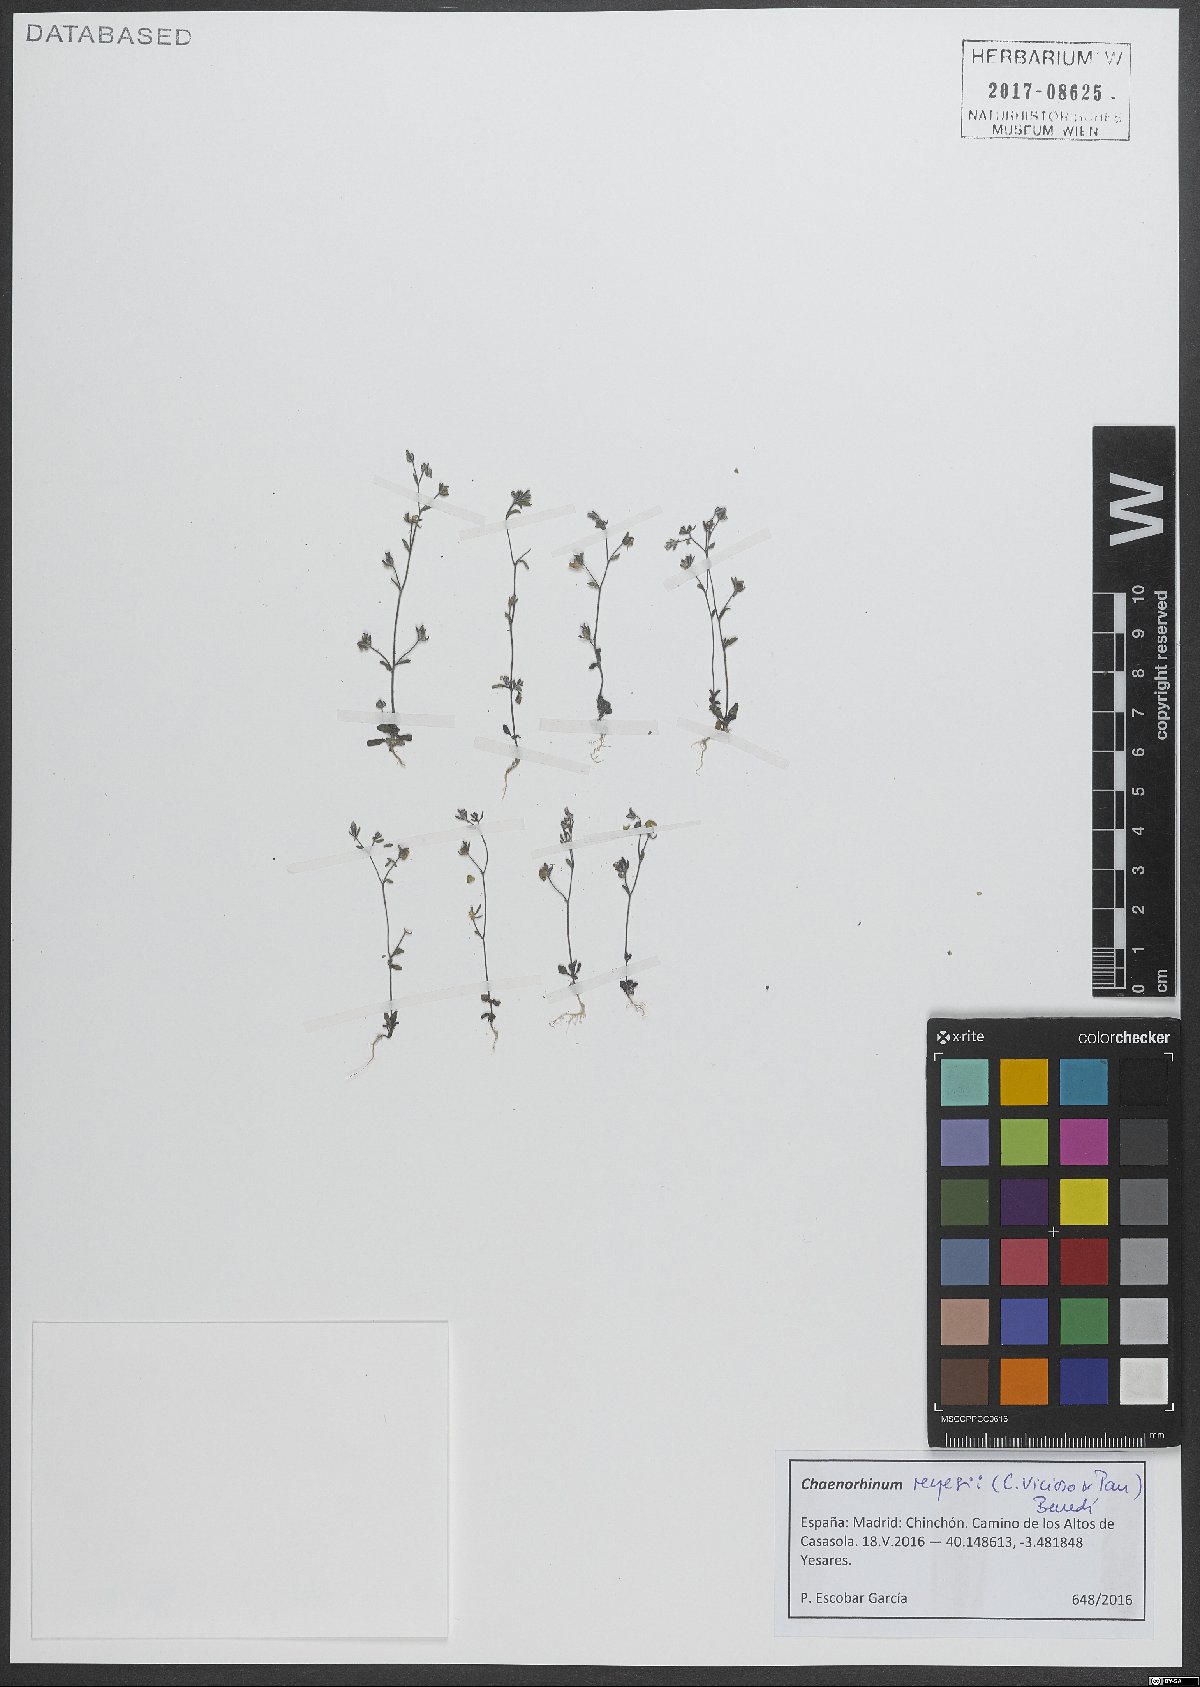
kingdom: Plantae
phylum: Tracheophyta
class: Magnoliopsida
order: Lamiales
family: Plantaginaceae
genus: Chaenorhinum
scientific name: Chaenorhinum reyesii
